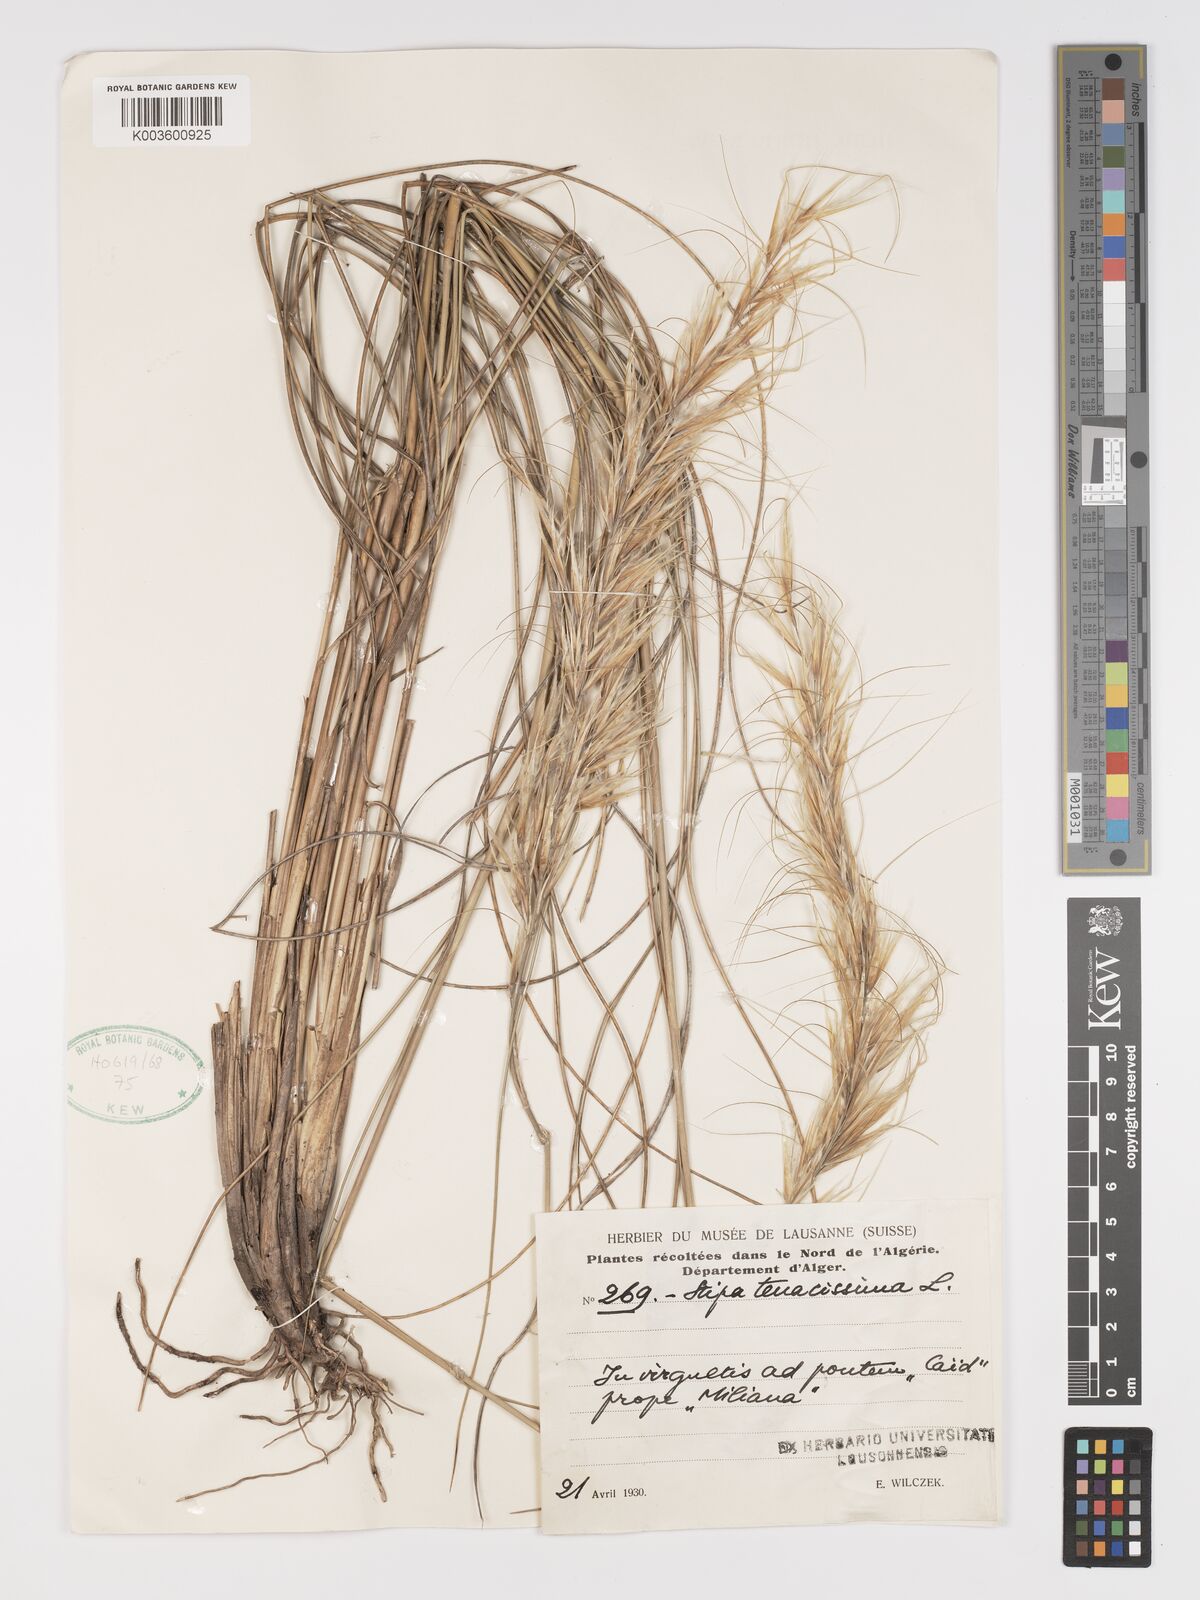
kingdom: Plantae
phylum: Tracheophyta
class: Liliopsida
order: Poales
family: Poaceae
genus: Macrochloa
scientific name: Macrochloa tenacissima
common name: Alfa grass
